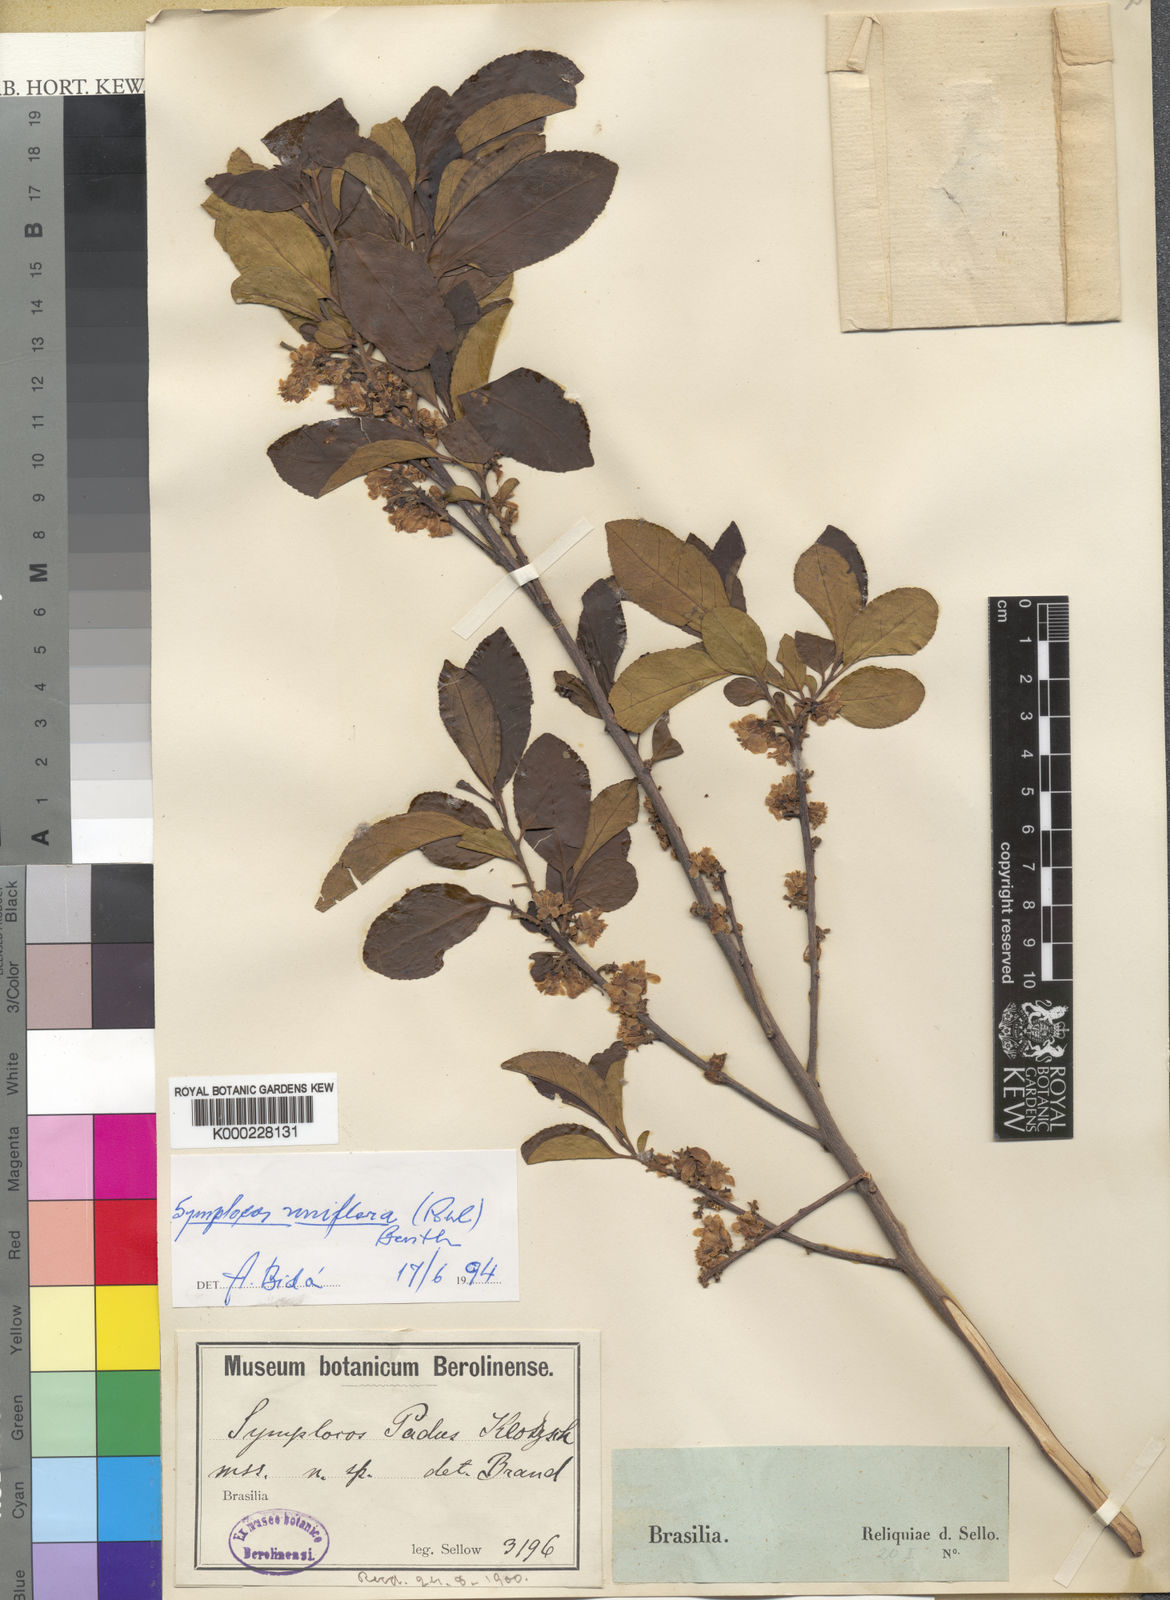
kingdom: Plantae
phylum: Tracheophyta
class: Magnoliopsida
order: Ericales
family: Symplocaceae
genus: Symplocos
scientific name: Symplocos uniflora
